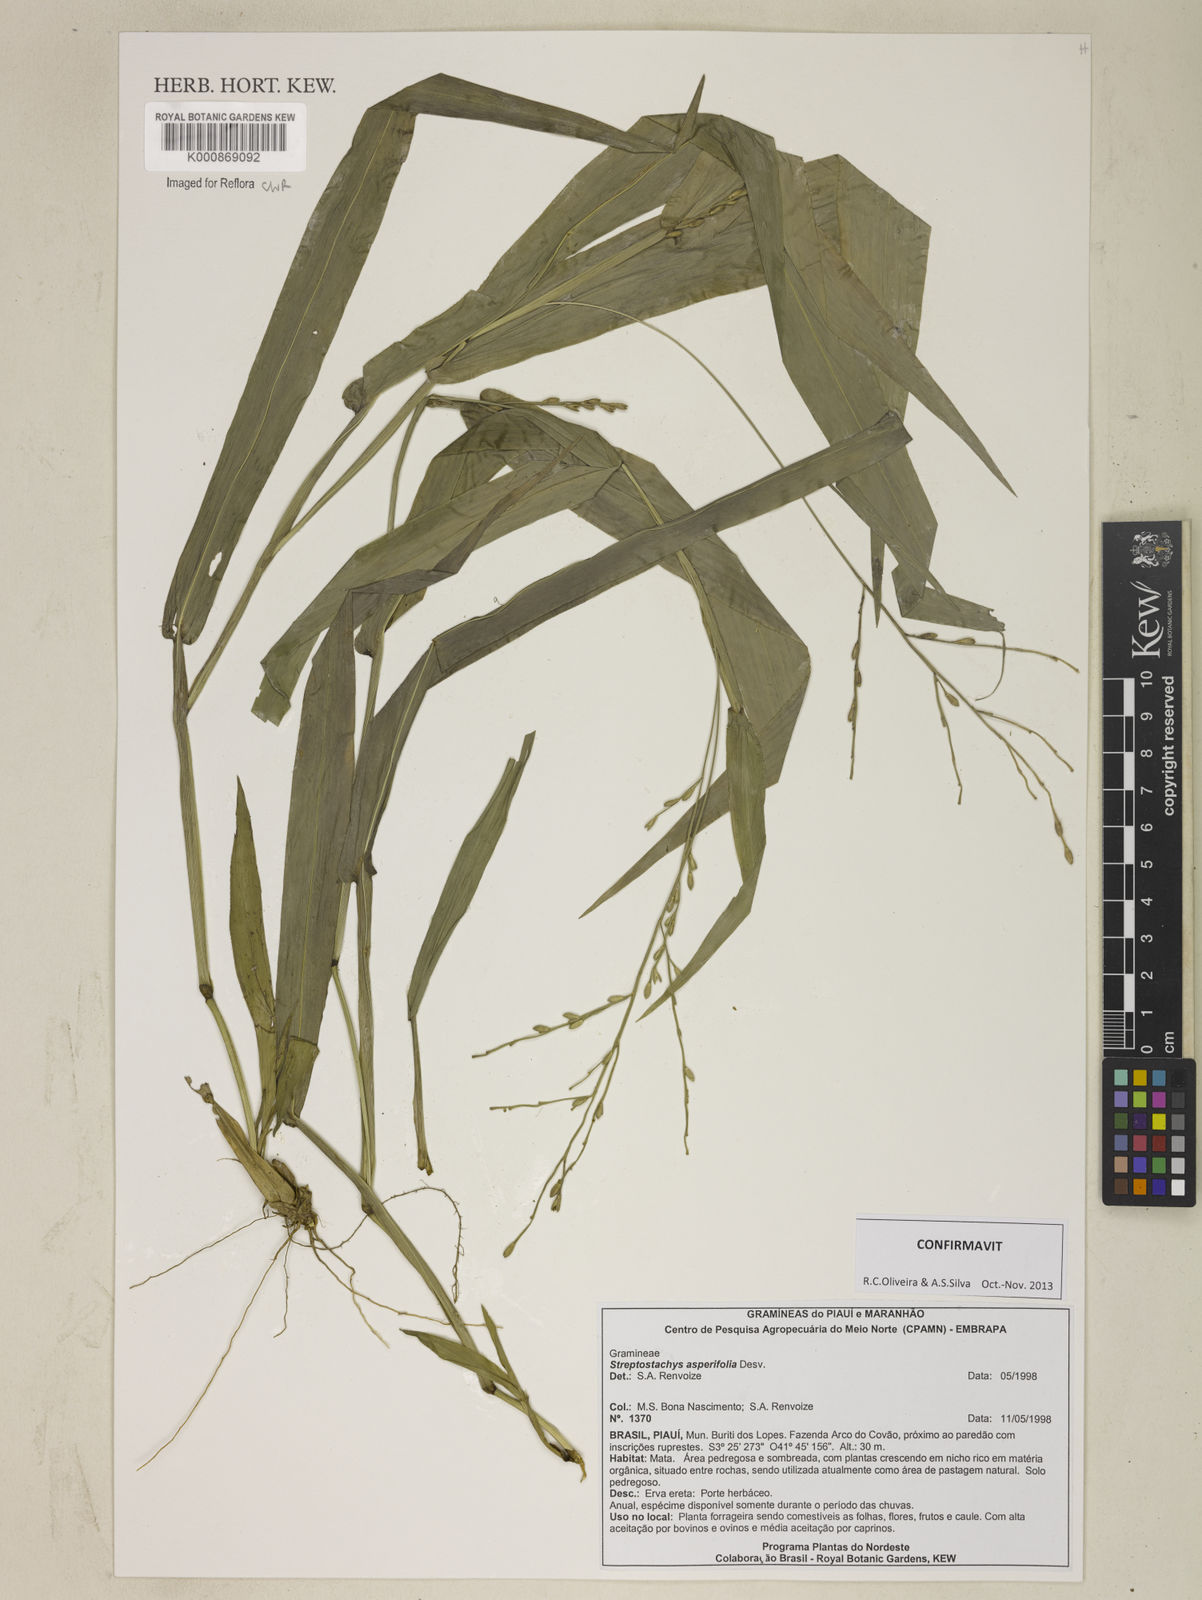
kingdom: Plantae
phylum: Tracheophyta
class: Liliopsida
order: Poales
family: Poaceae
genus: Streptostachys
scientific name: Streptostachys asperifolia
